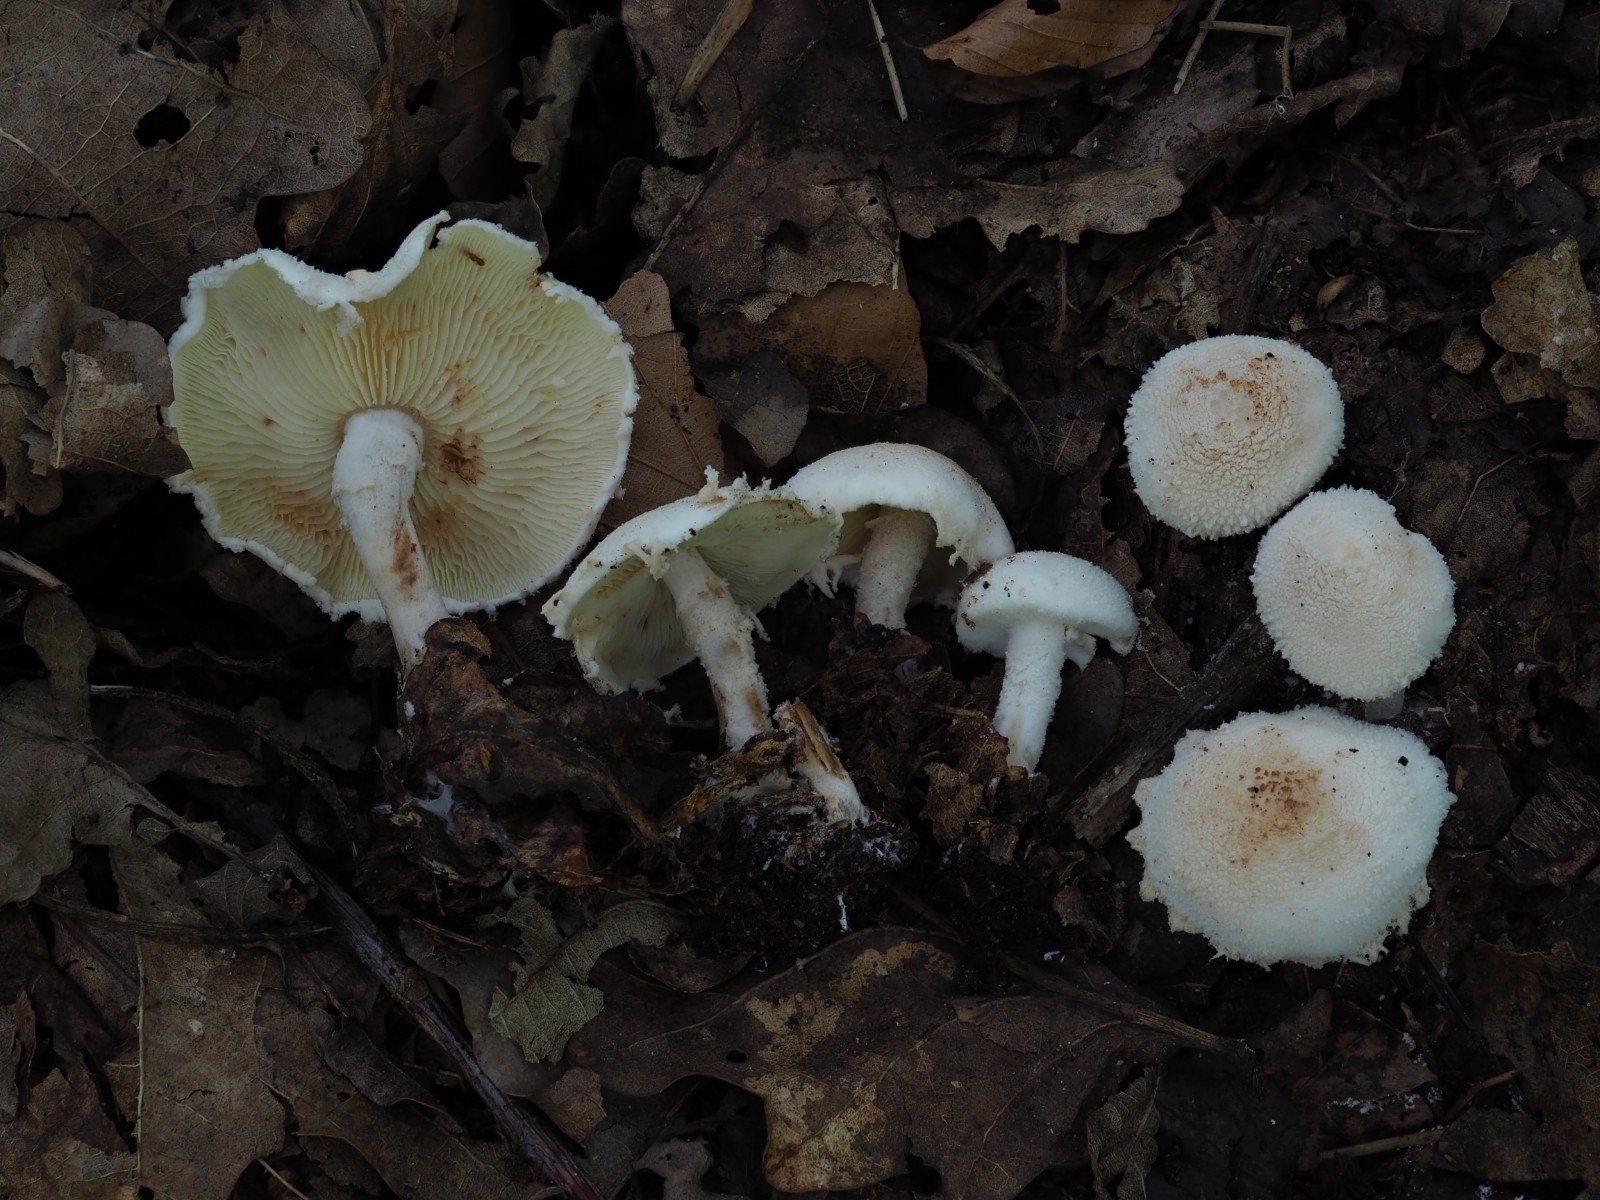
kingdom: Fungi
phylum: Basidiomycota
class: Agaricomycetes
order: Agaricales
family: Agaricaceae
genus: Cystolepiota
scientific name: Cystolepiota hetieri
